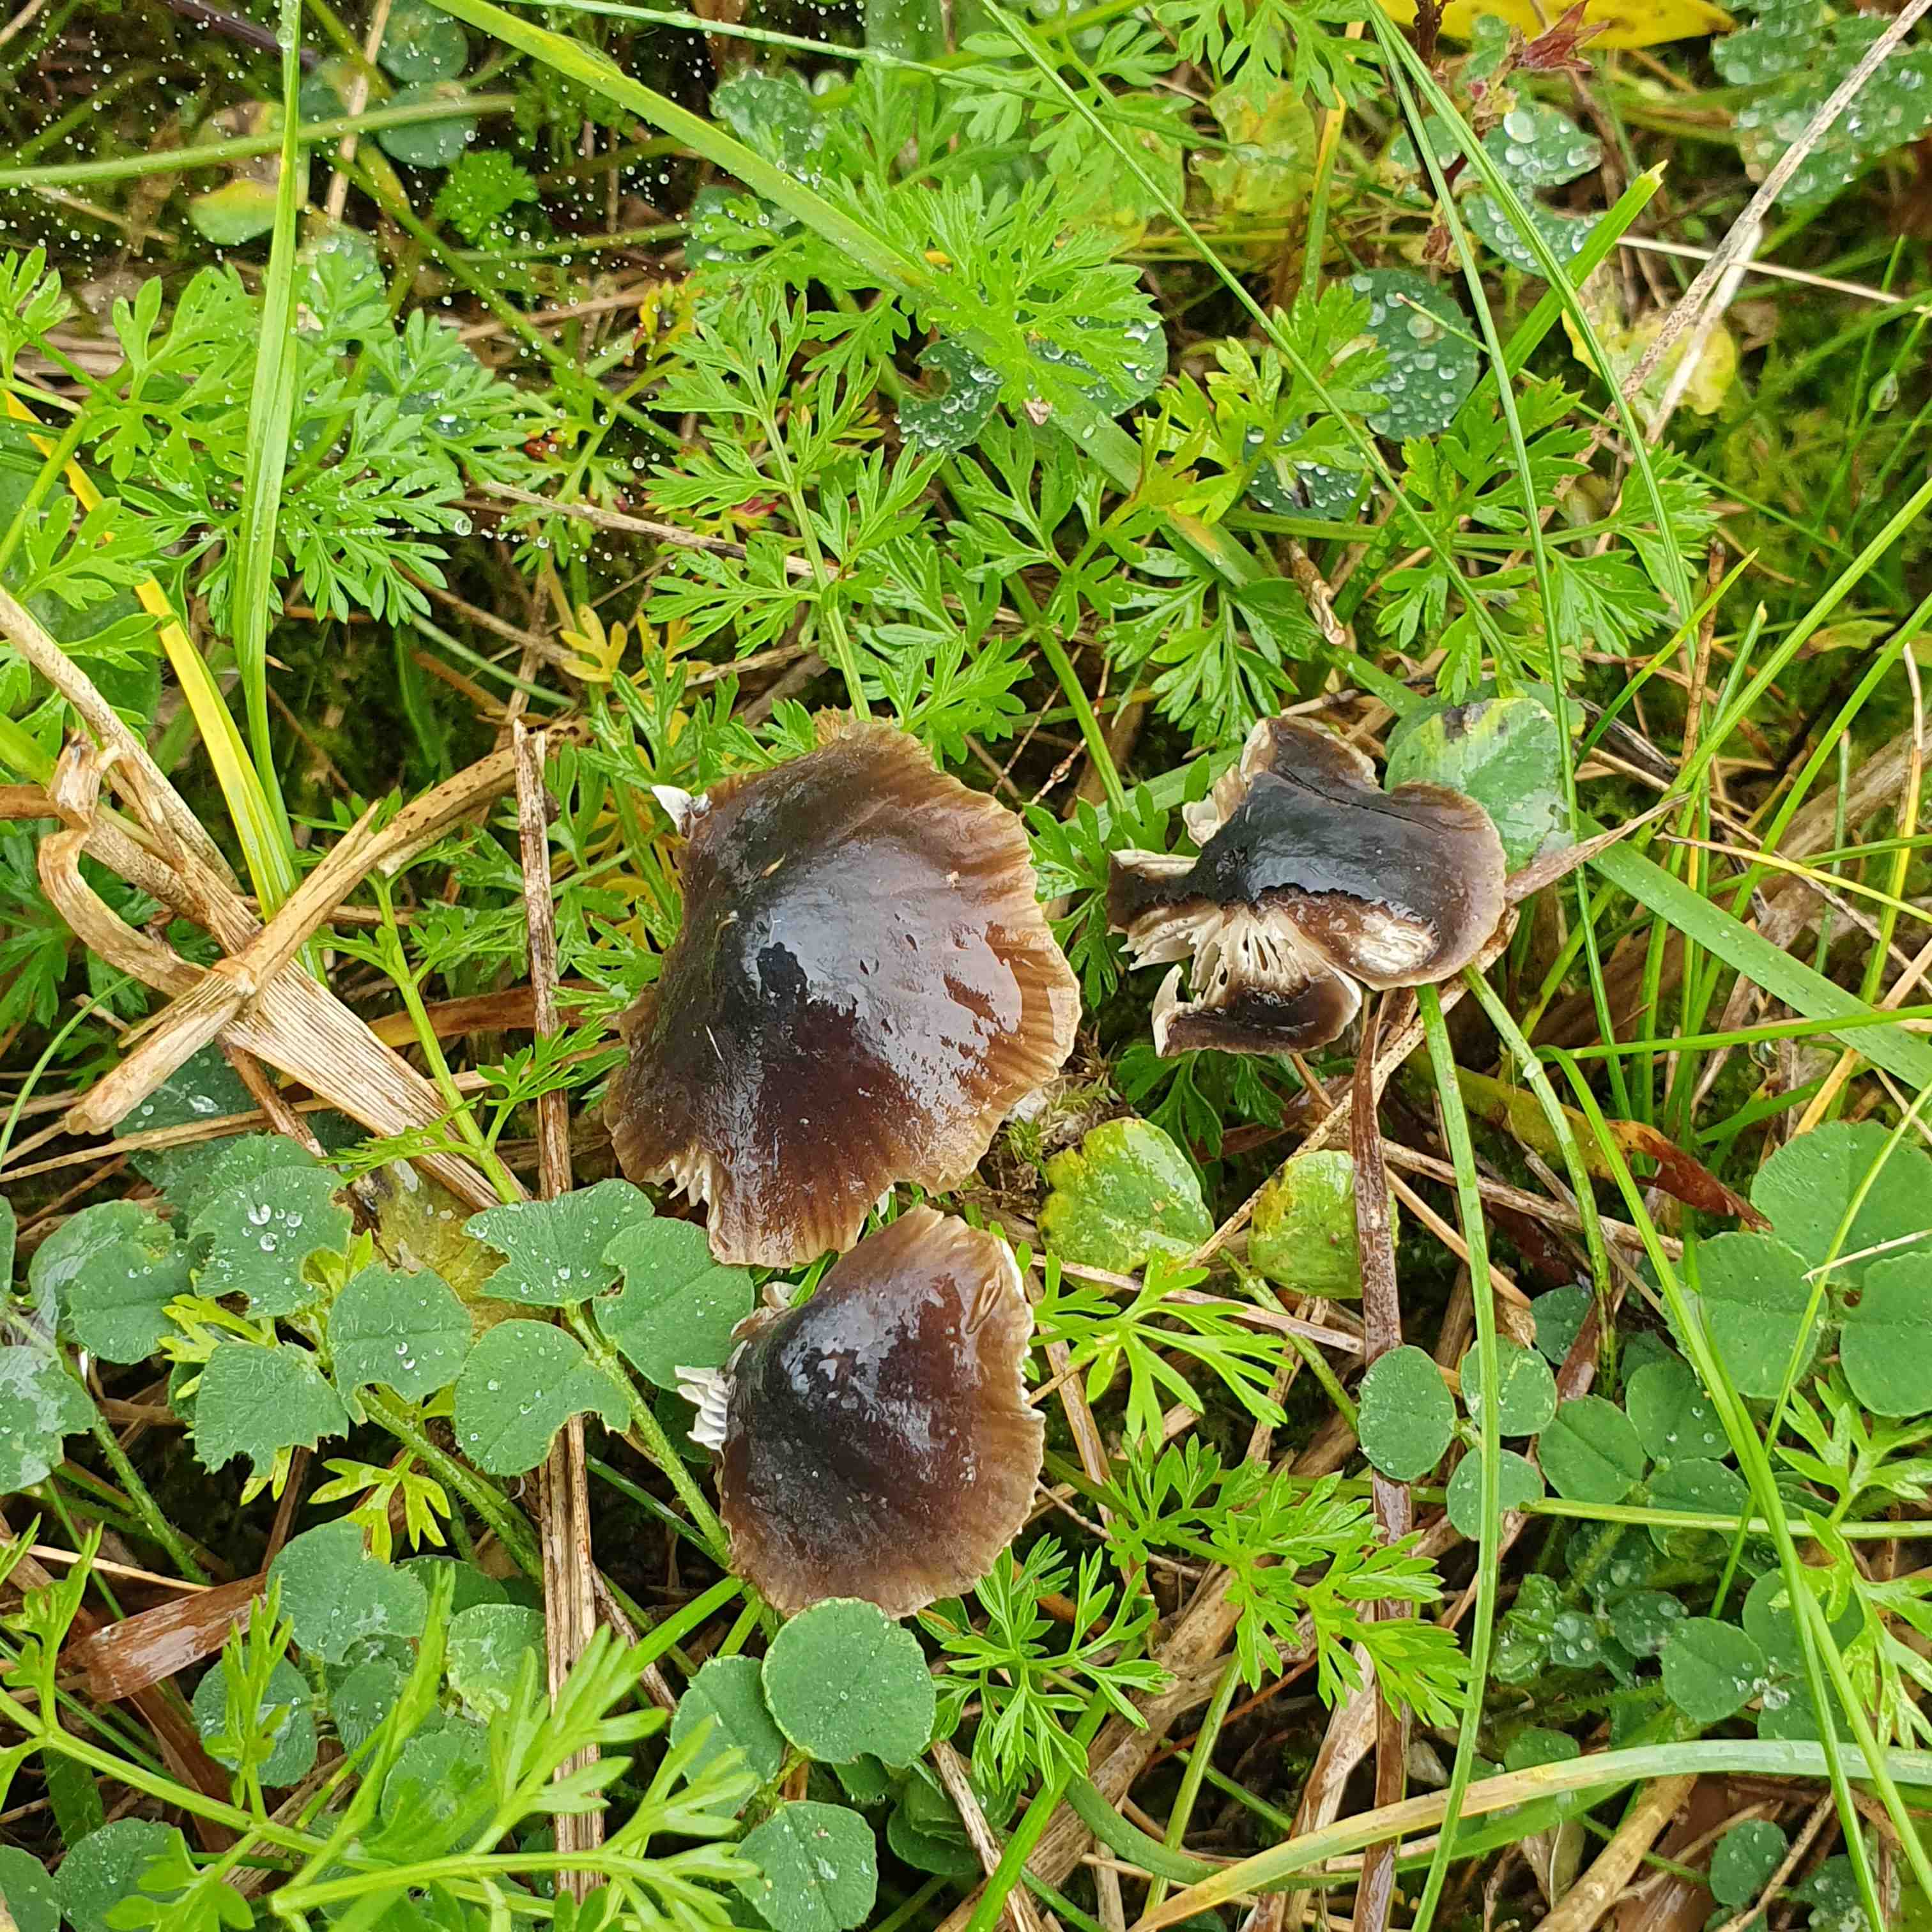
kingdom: Fungi
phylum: Basidiomycota
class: Agaricomycetes
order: Agaricales
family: Tricholomataceae
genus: Mycenella
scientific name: Mycenella salicina
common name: glatsporet dughat
